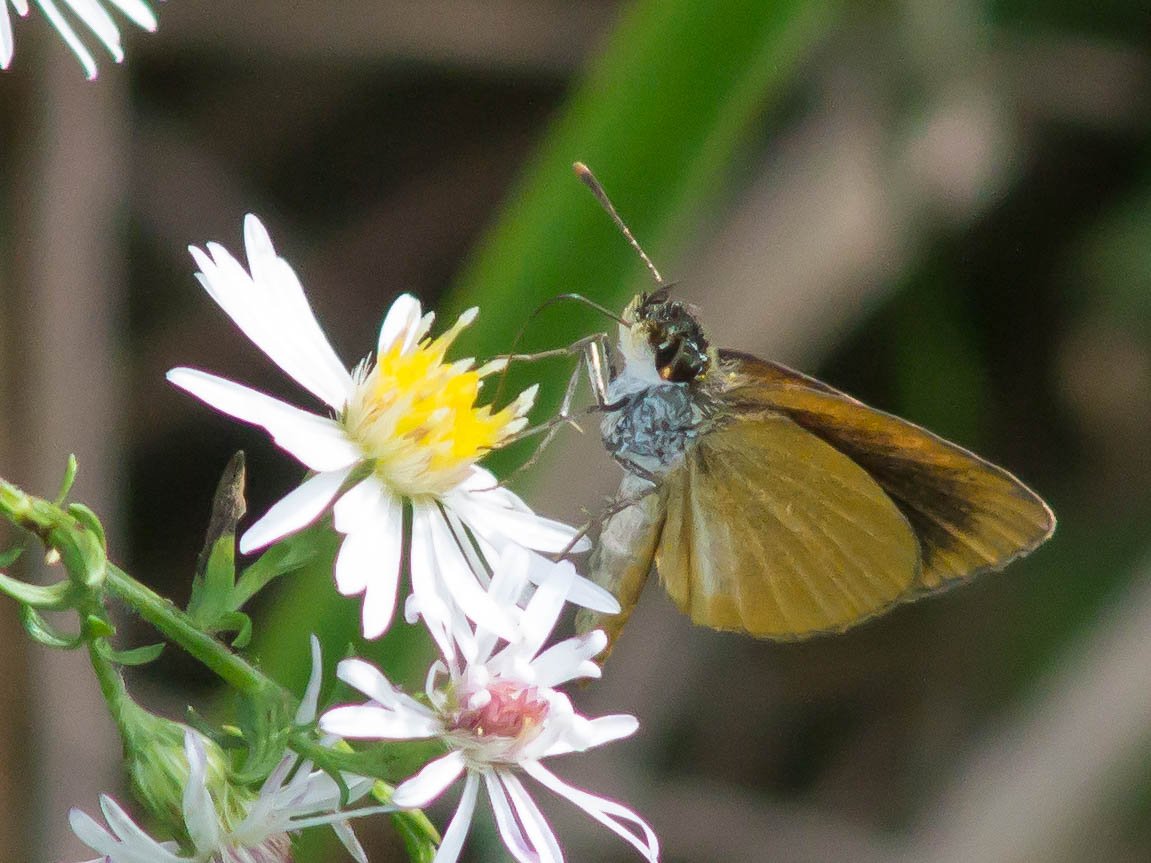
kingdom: Animalia
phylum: Arthropoda
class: Insecta
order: Lepidoptera
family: Hesperiidae
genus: Ancyloxypha
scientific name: Ancyloxypha numitor
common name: Least Skipper
